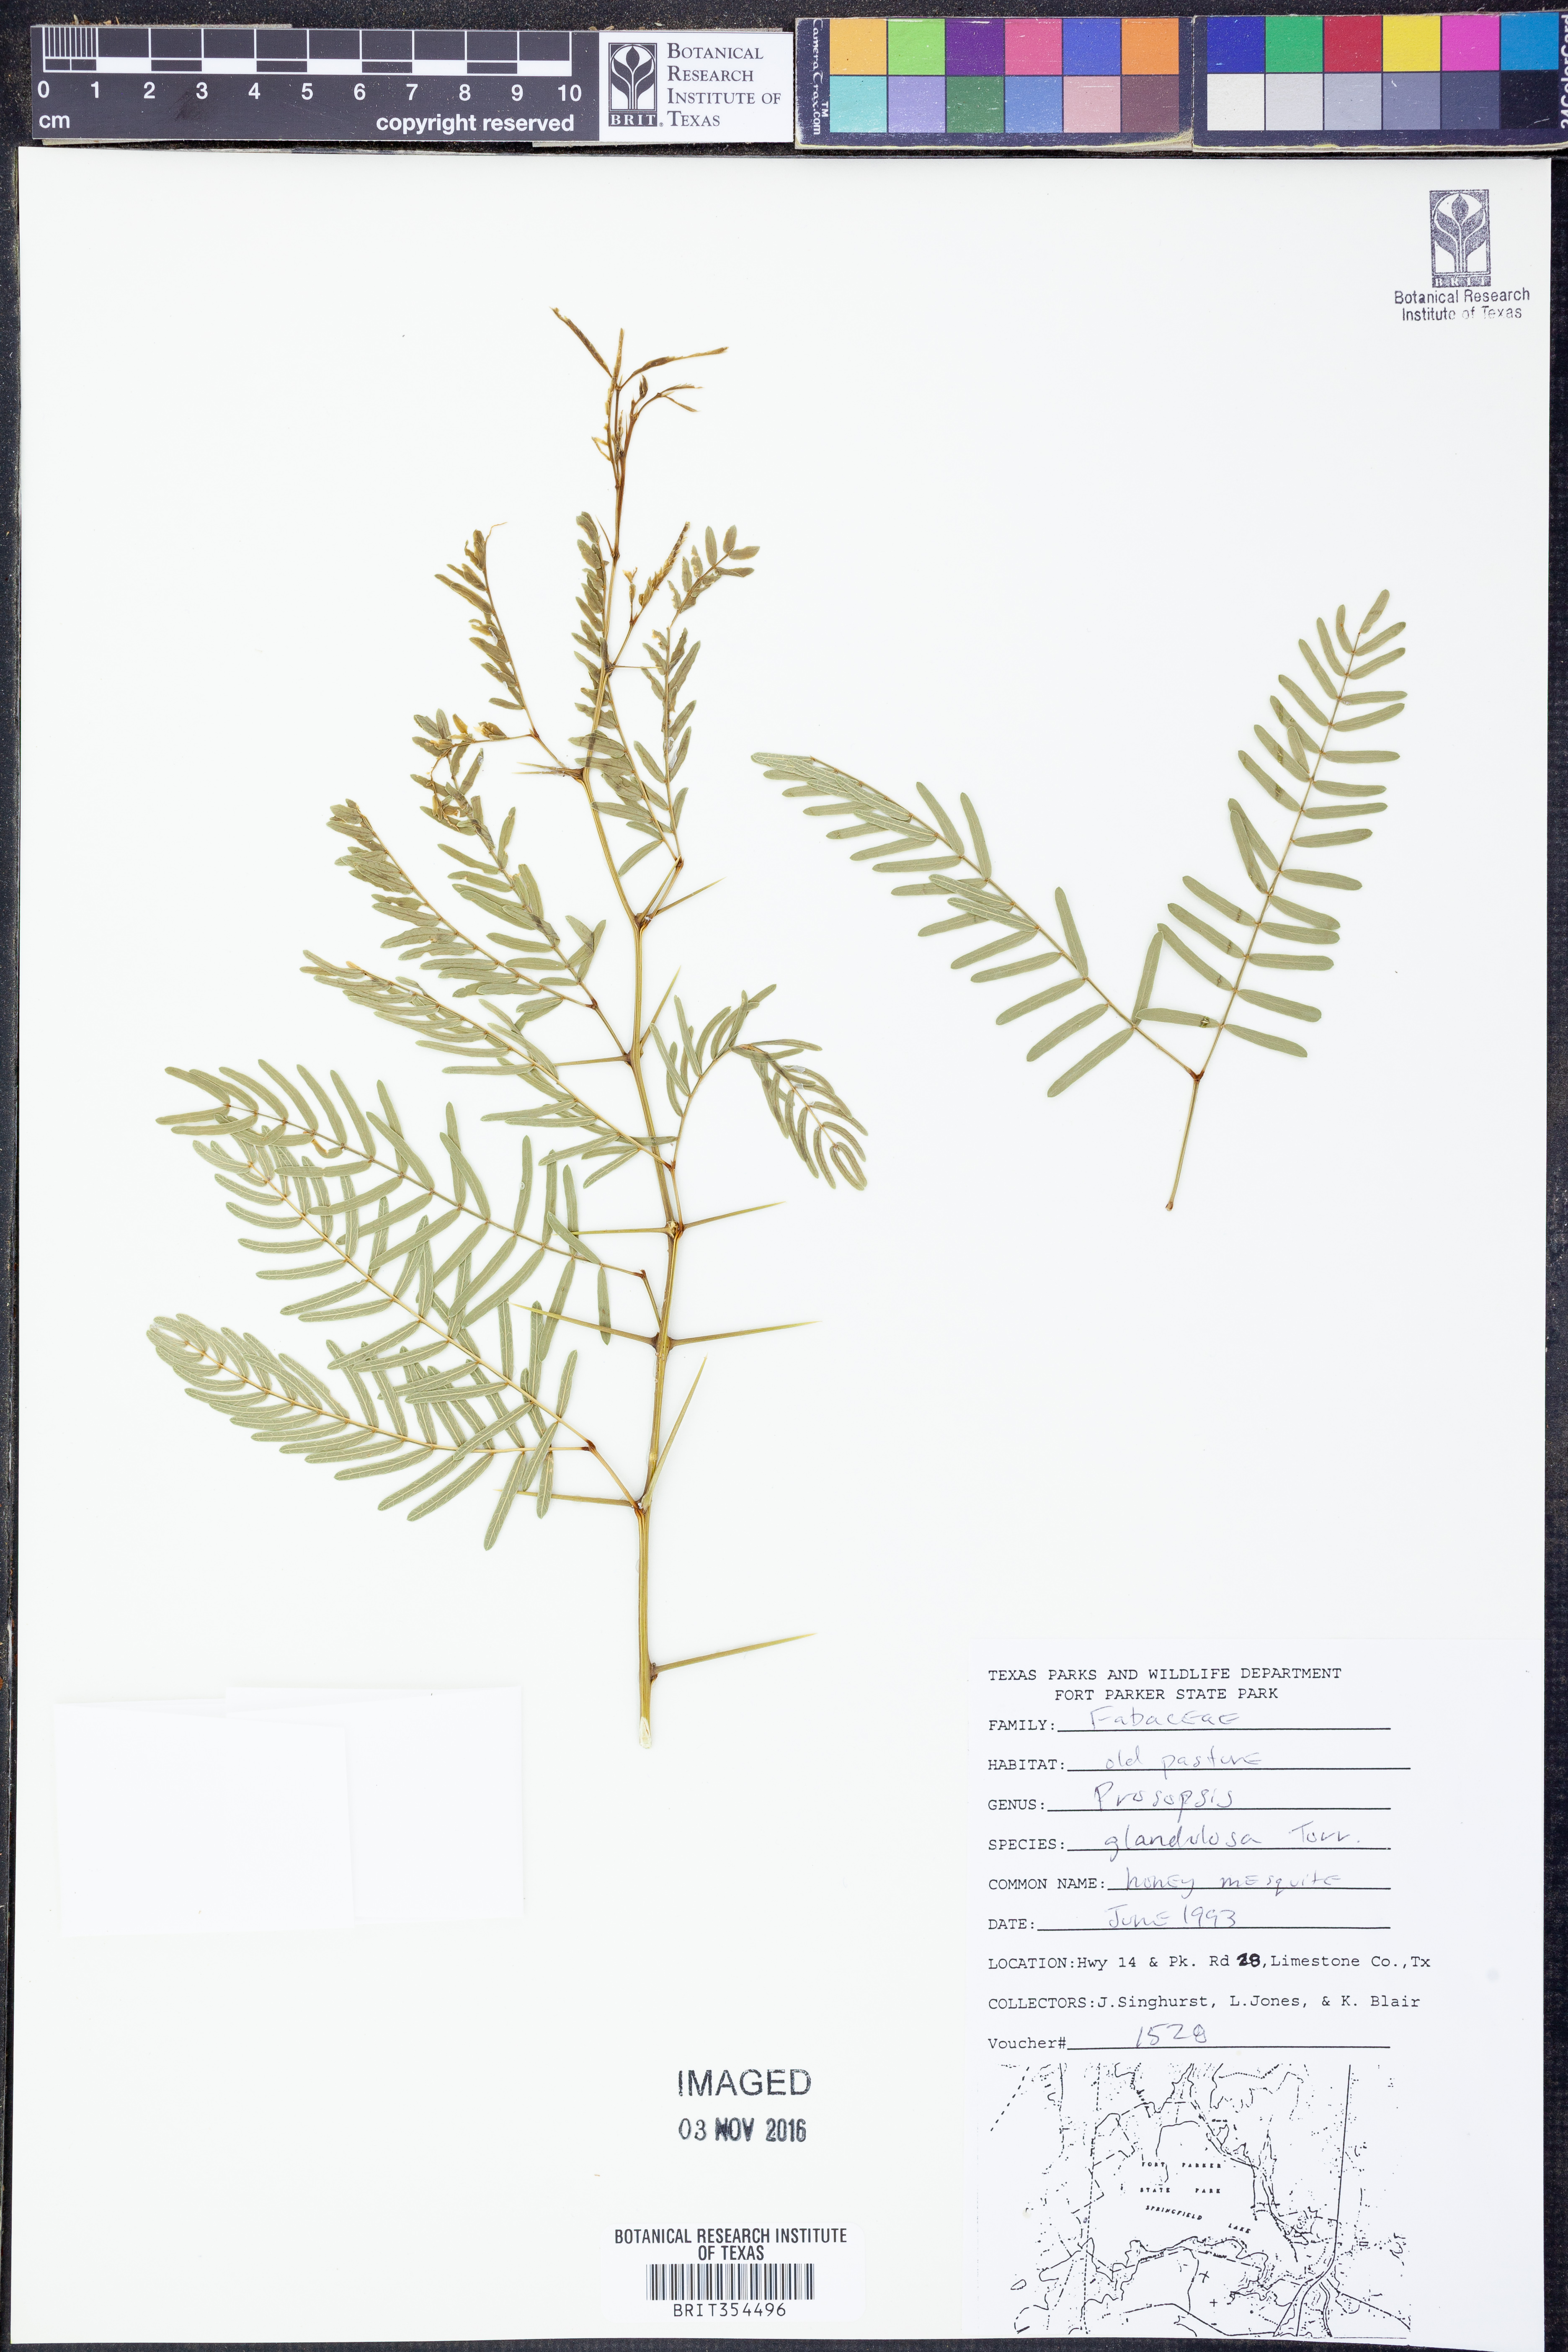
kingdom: Plantae
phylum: Tracheophyta
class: Magnoliopsida
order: Fabales
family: Fabaceae
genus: Prosopis
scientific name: Prosopis glandulosa
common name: Honey mesquite
